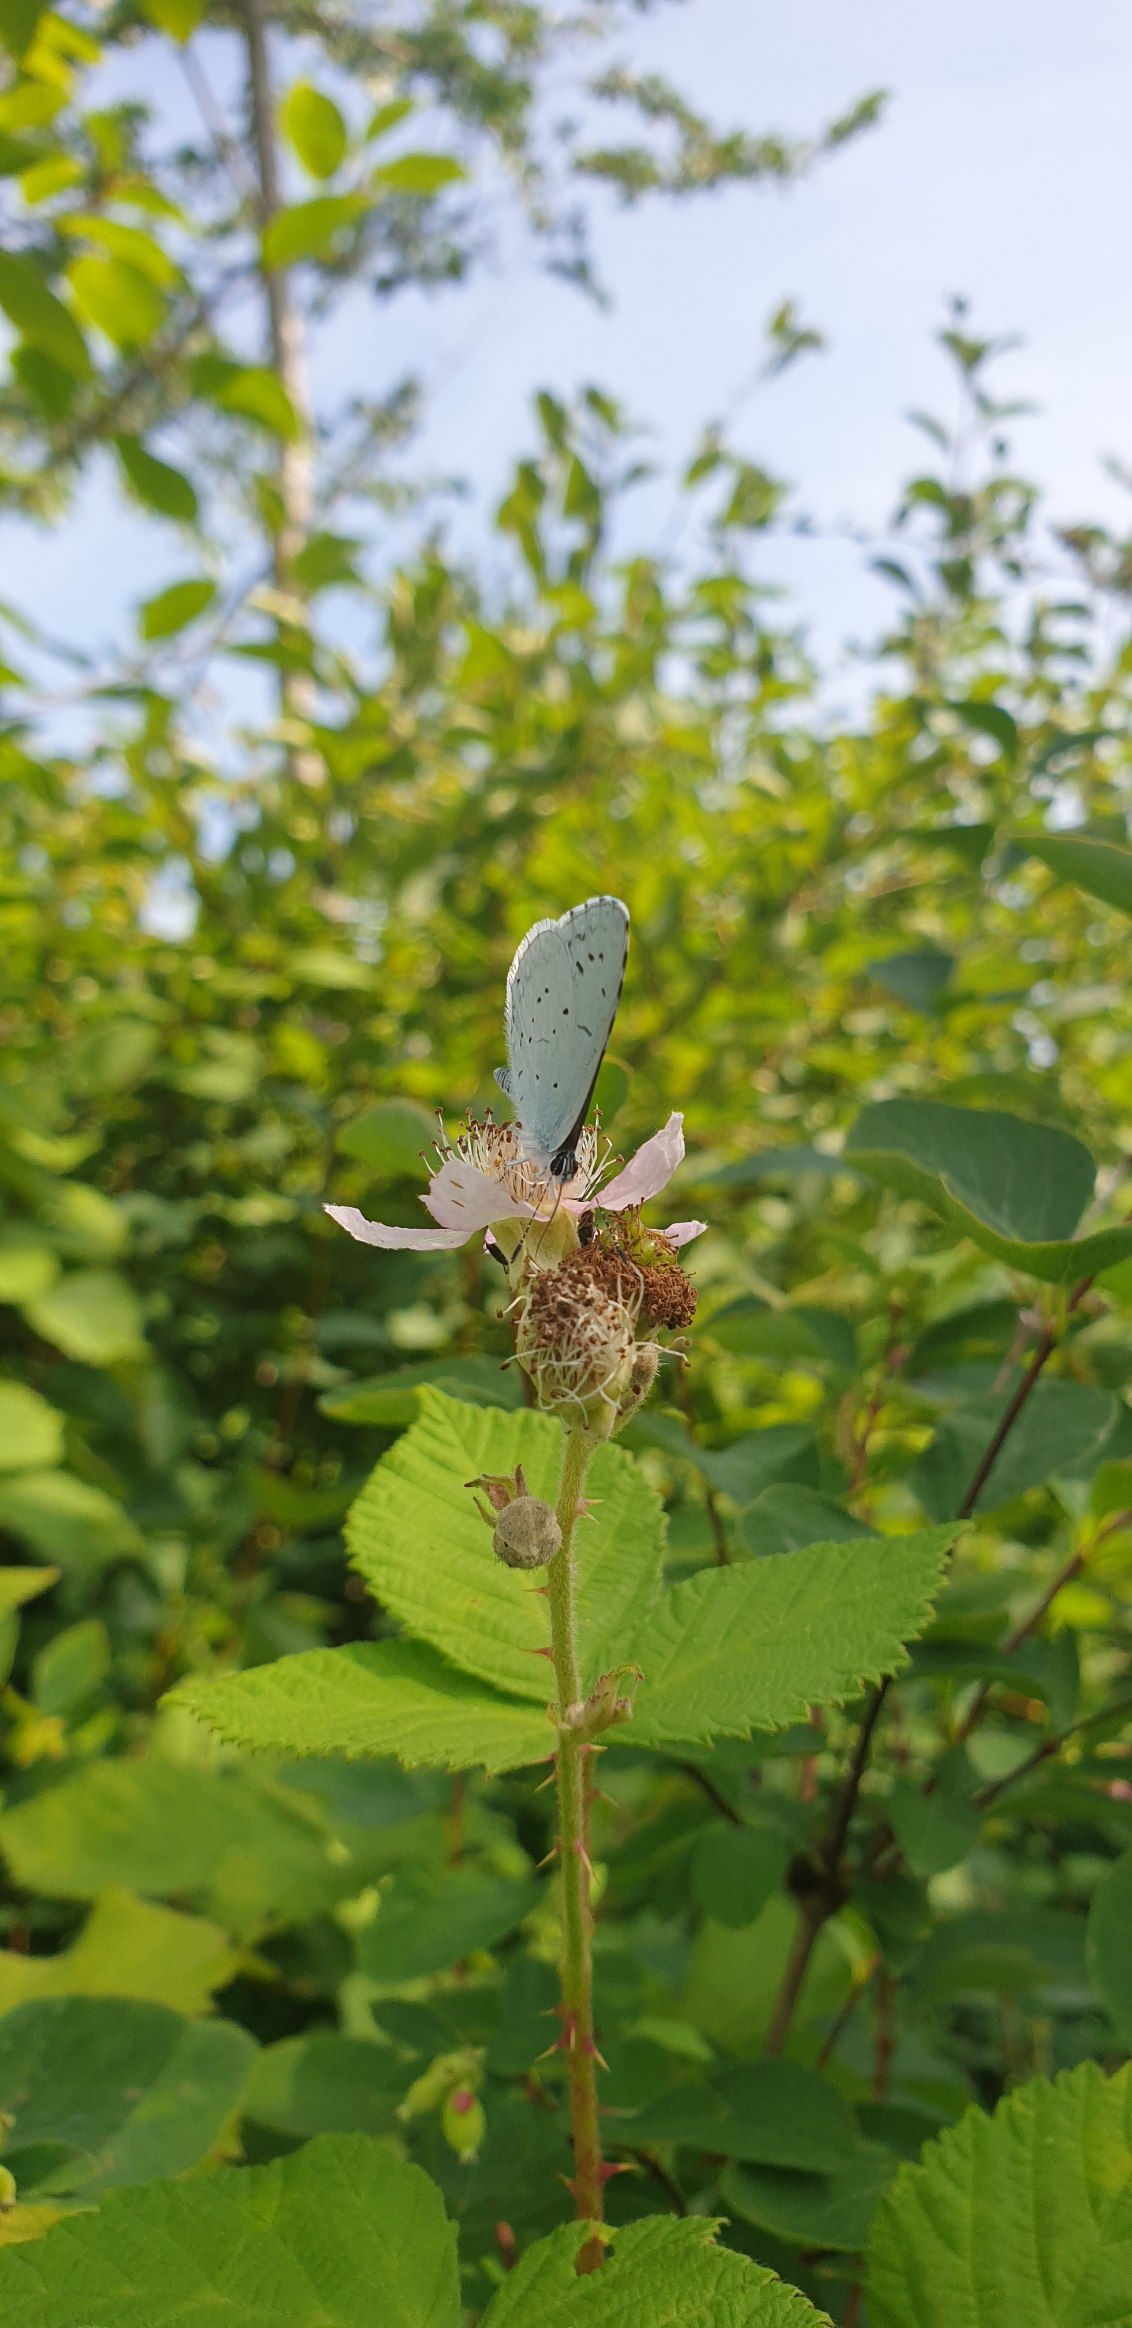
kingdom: Animalia
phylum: Arthropoda
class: Insecta
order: Lepidoptera
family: Lycaenidae
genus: Celastrina
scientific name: Celastrina argiolus
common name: Skovblåfugl
